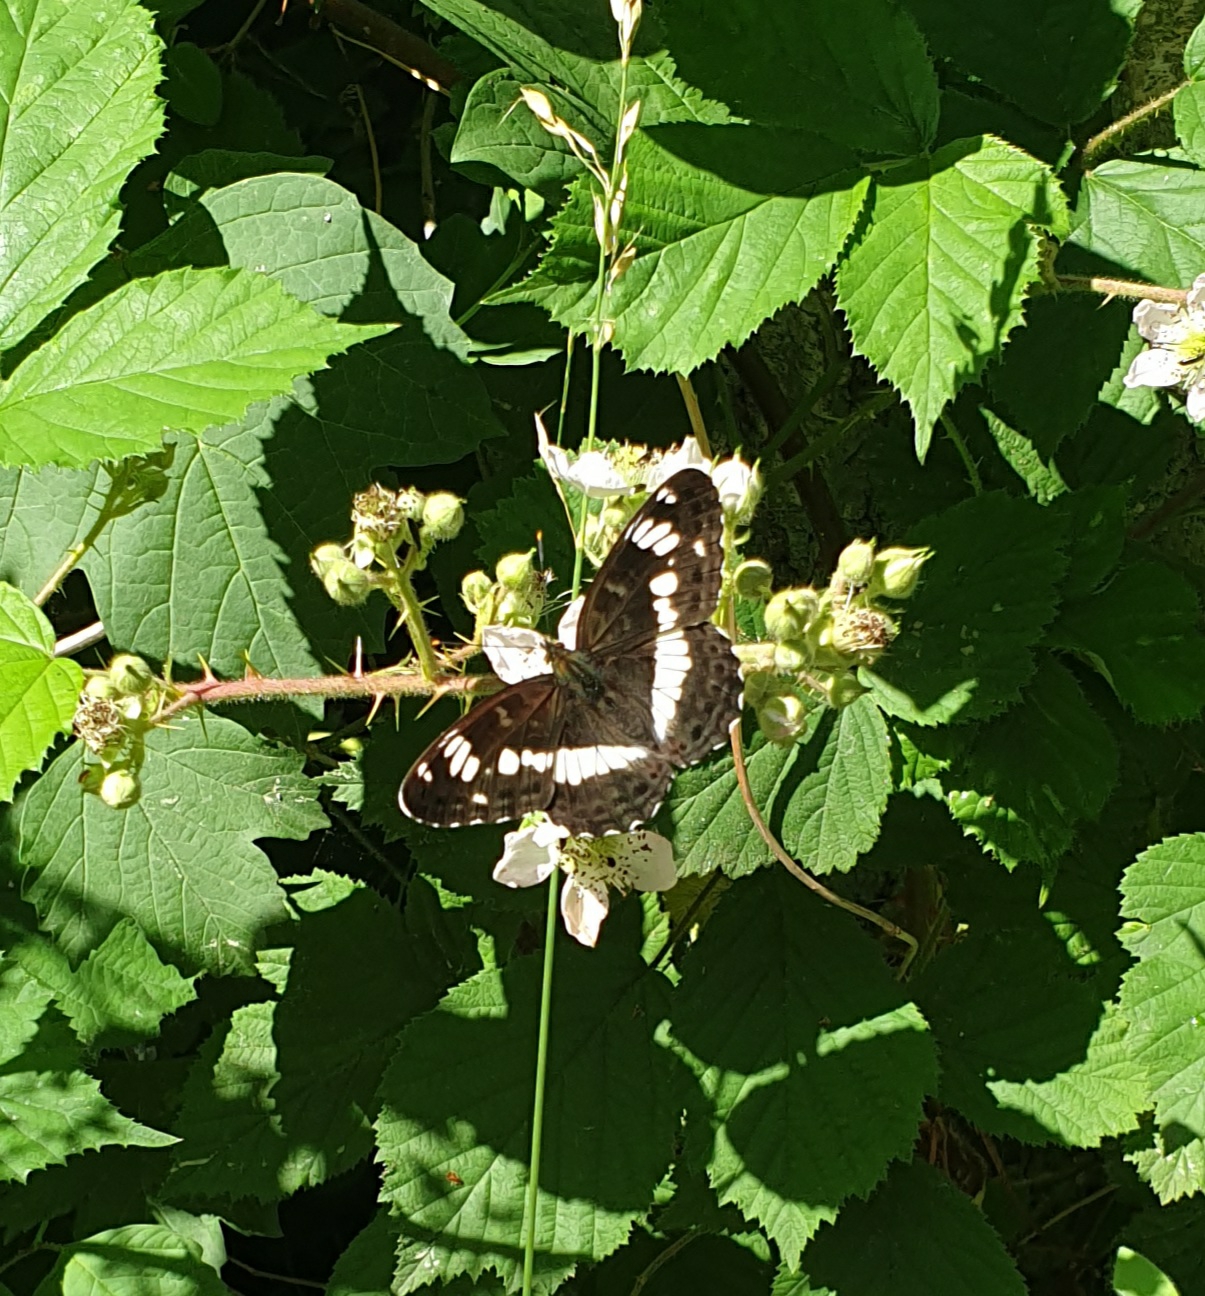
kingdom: Animalia
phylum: Arthropoda
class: Insecta
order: Lepidoptera
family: Nymphalidae
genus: Ladoga
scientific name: Ladoga camilla
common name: Hvid admiral
